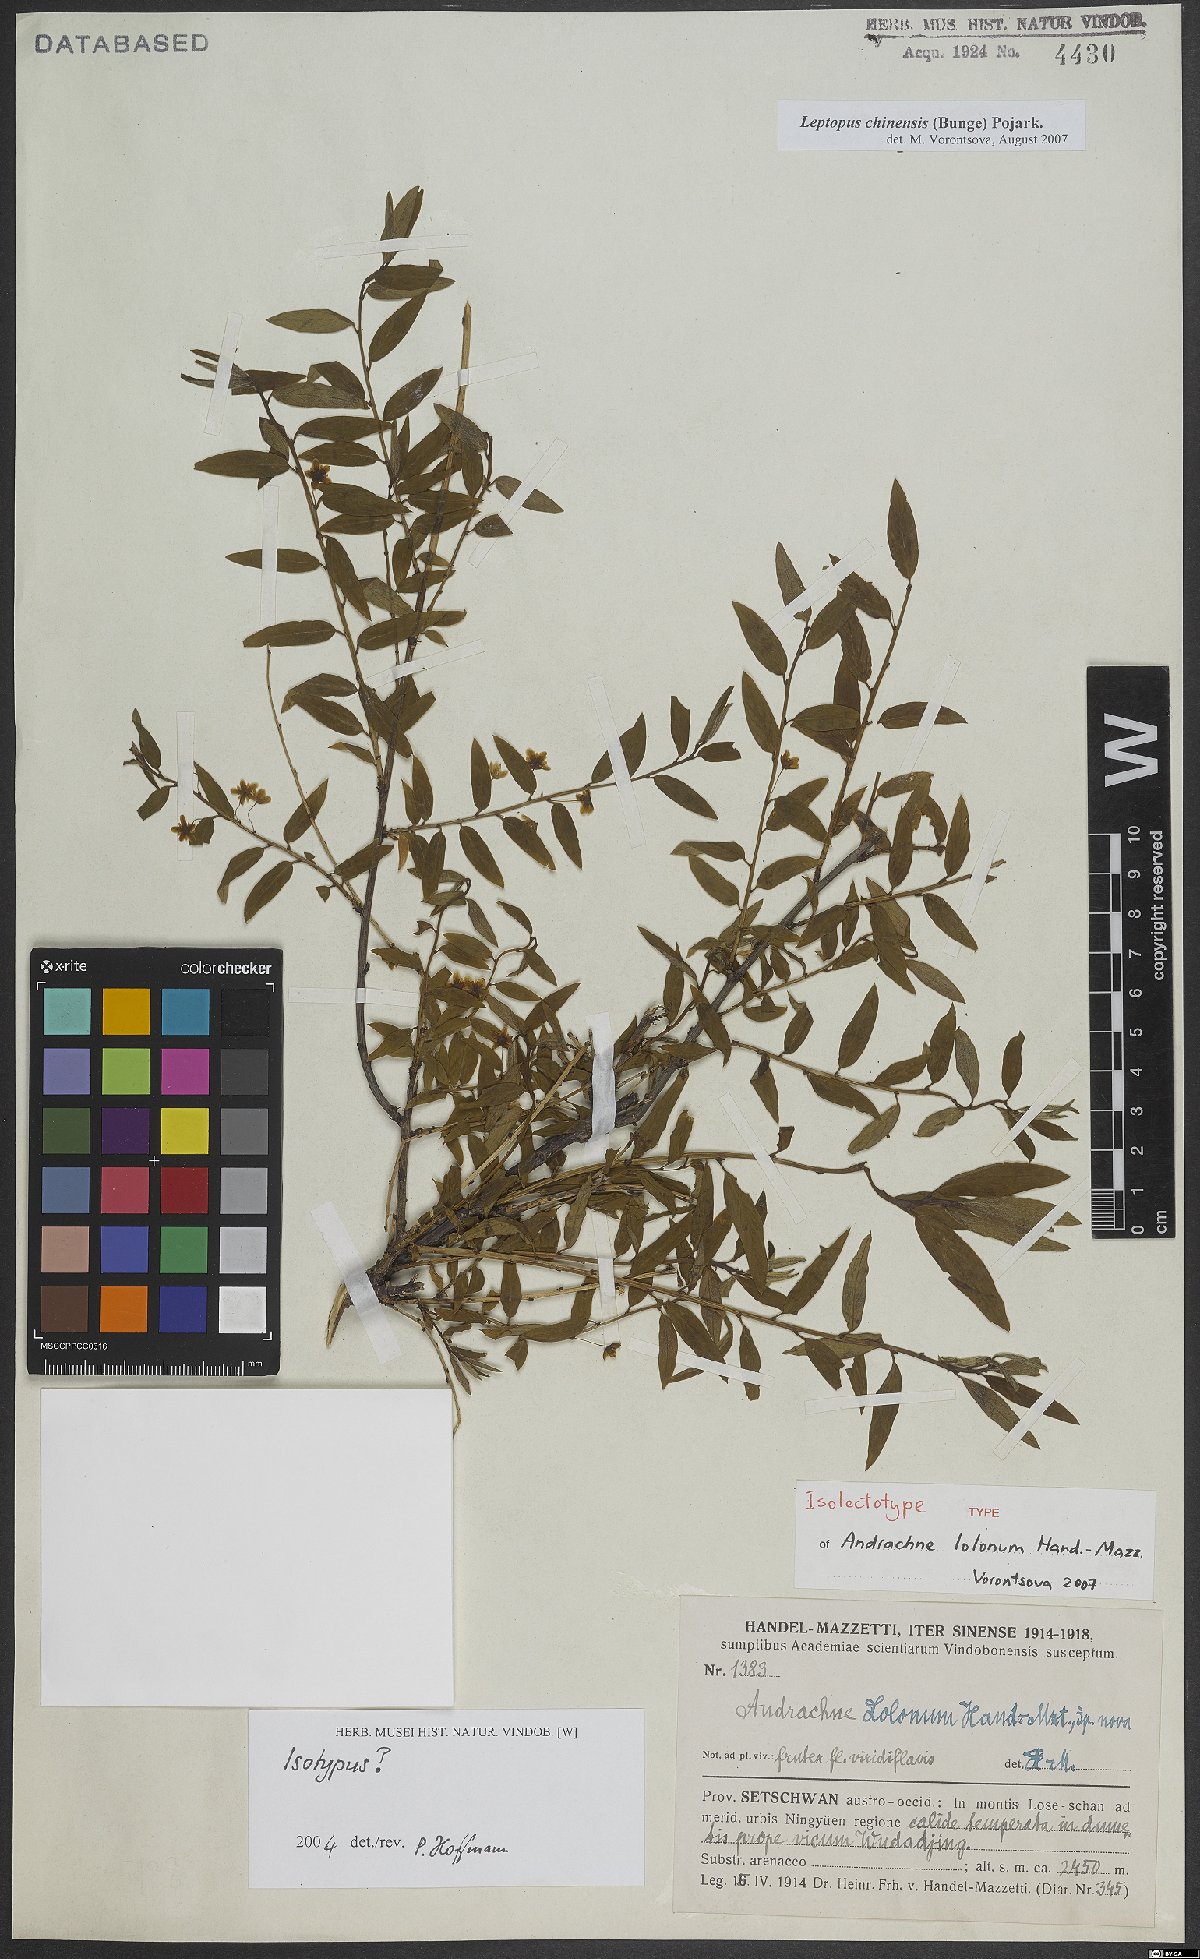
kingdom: Plantae
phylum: Tracheophyta
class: Magnoliopsida
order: Malpighiales
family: Phyllanthaceae
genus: Leptopus
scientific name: Leptopus chinensis
